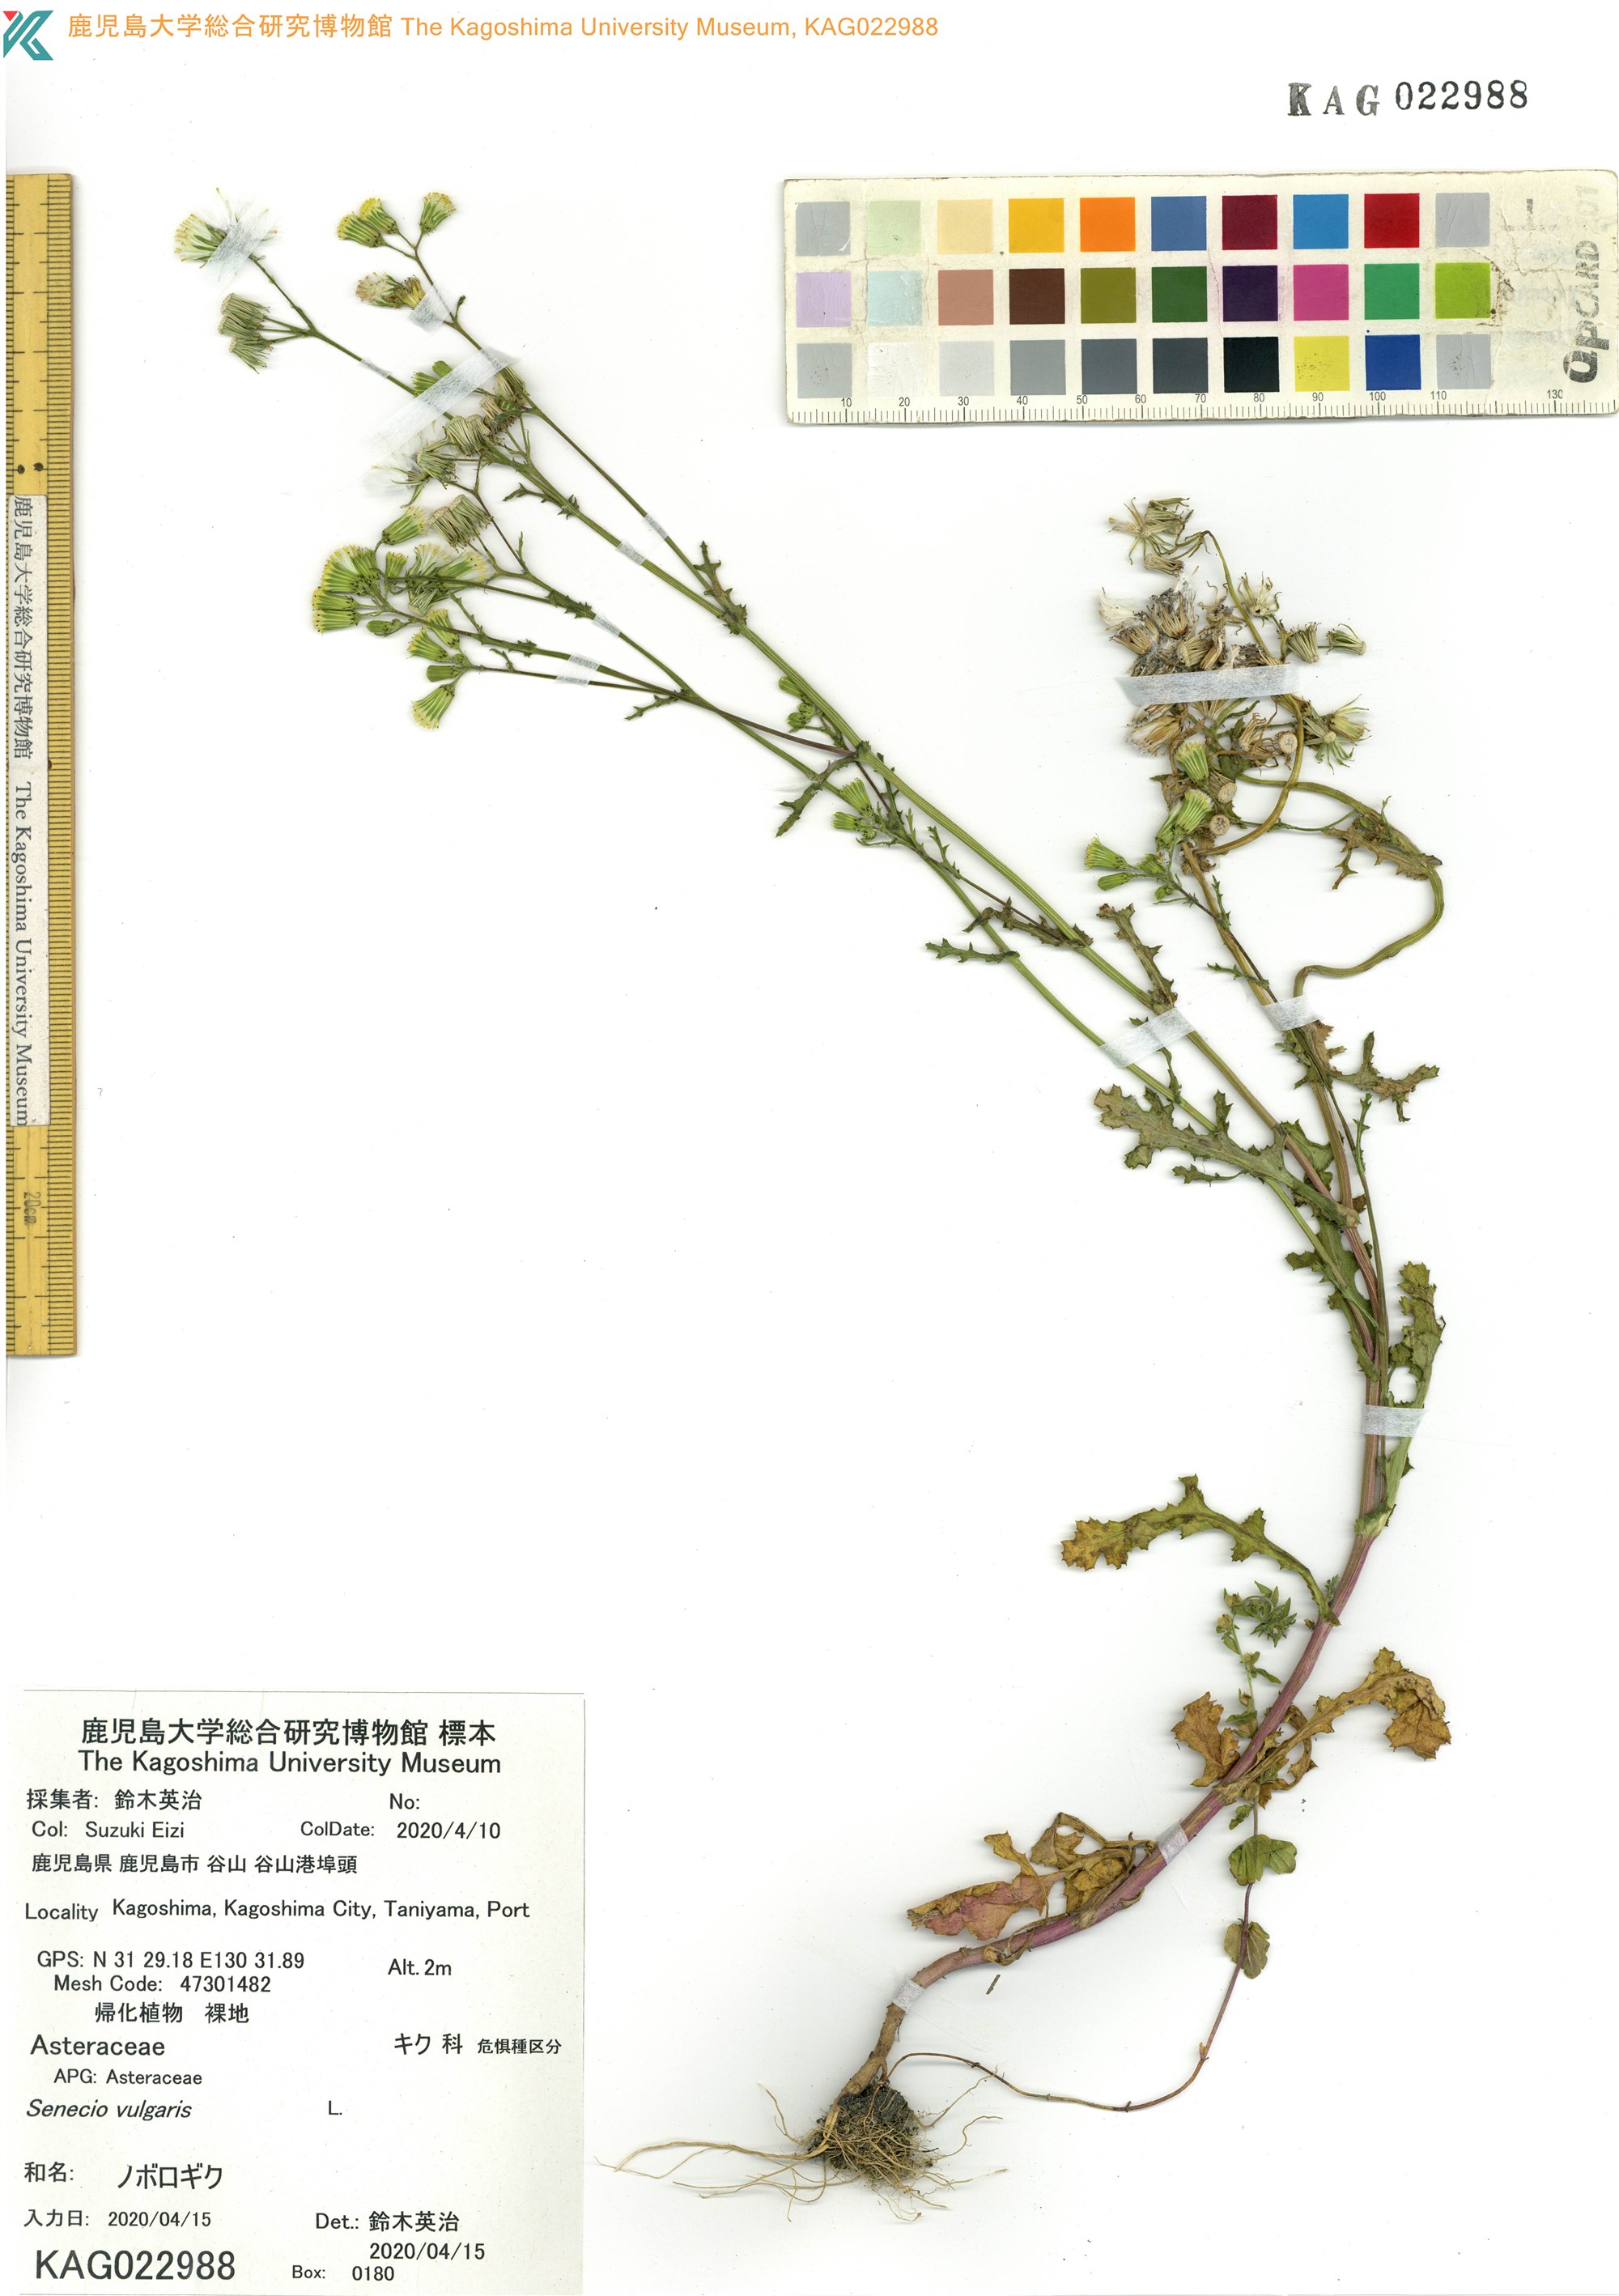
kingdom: Plantae
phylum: Tracheophyta
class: Magnoliopsida
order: Asterales
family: Asteraceae
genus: Senecio
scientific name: Senecio vulgaris
